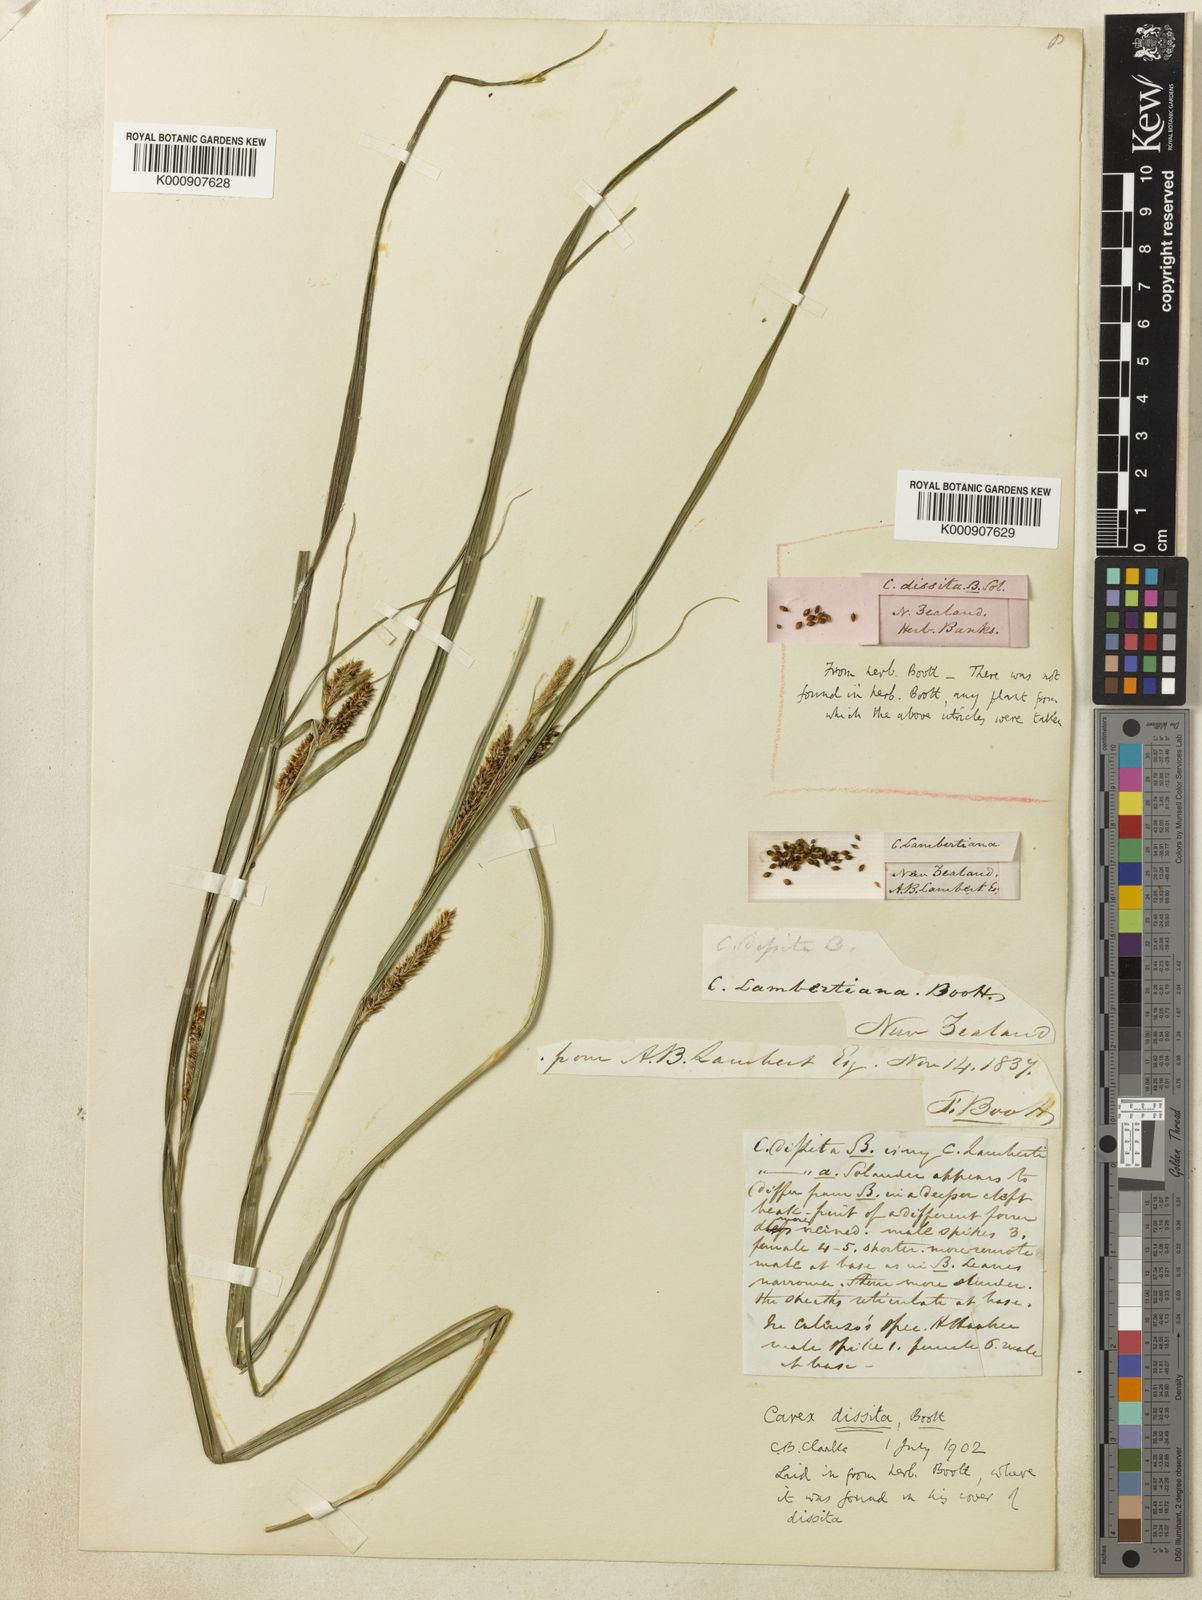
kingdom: Plantae
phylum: Tracheophyta
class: Liliopsida
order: Poales
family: Cyperaceae
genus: Carex
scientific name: Carex dissita
